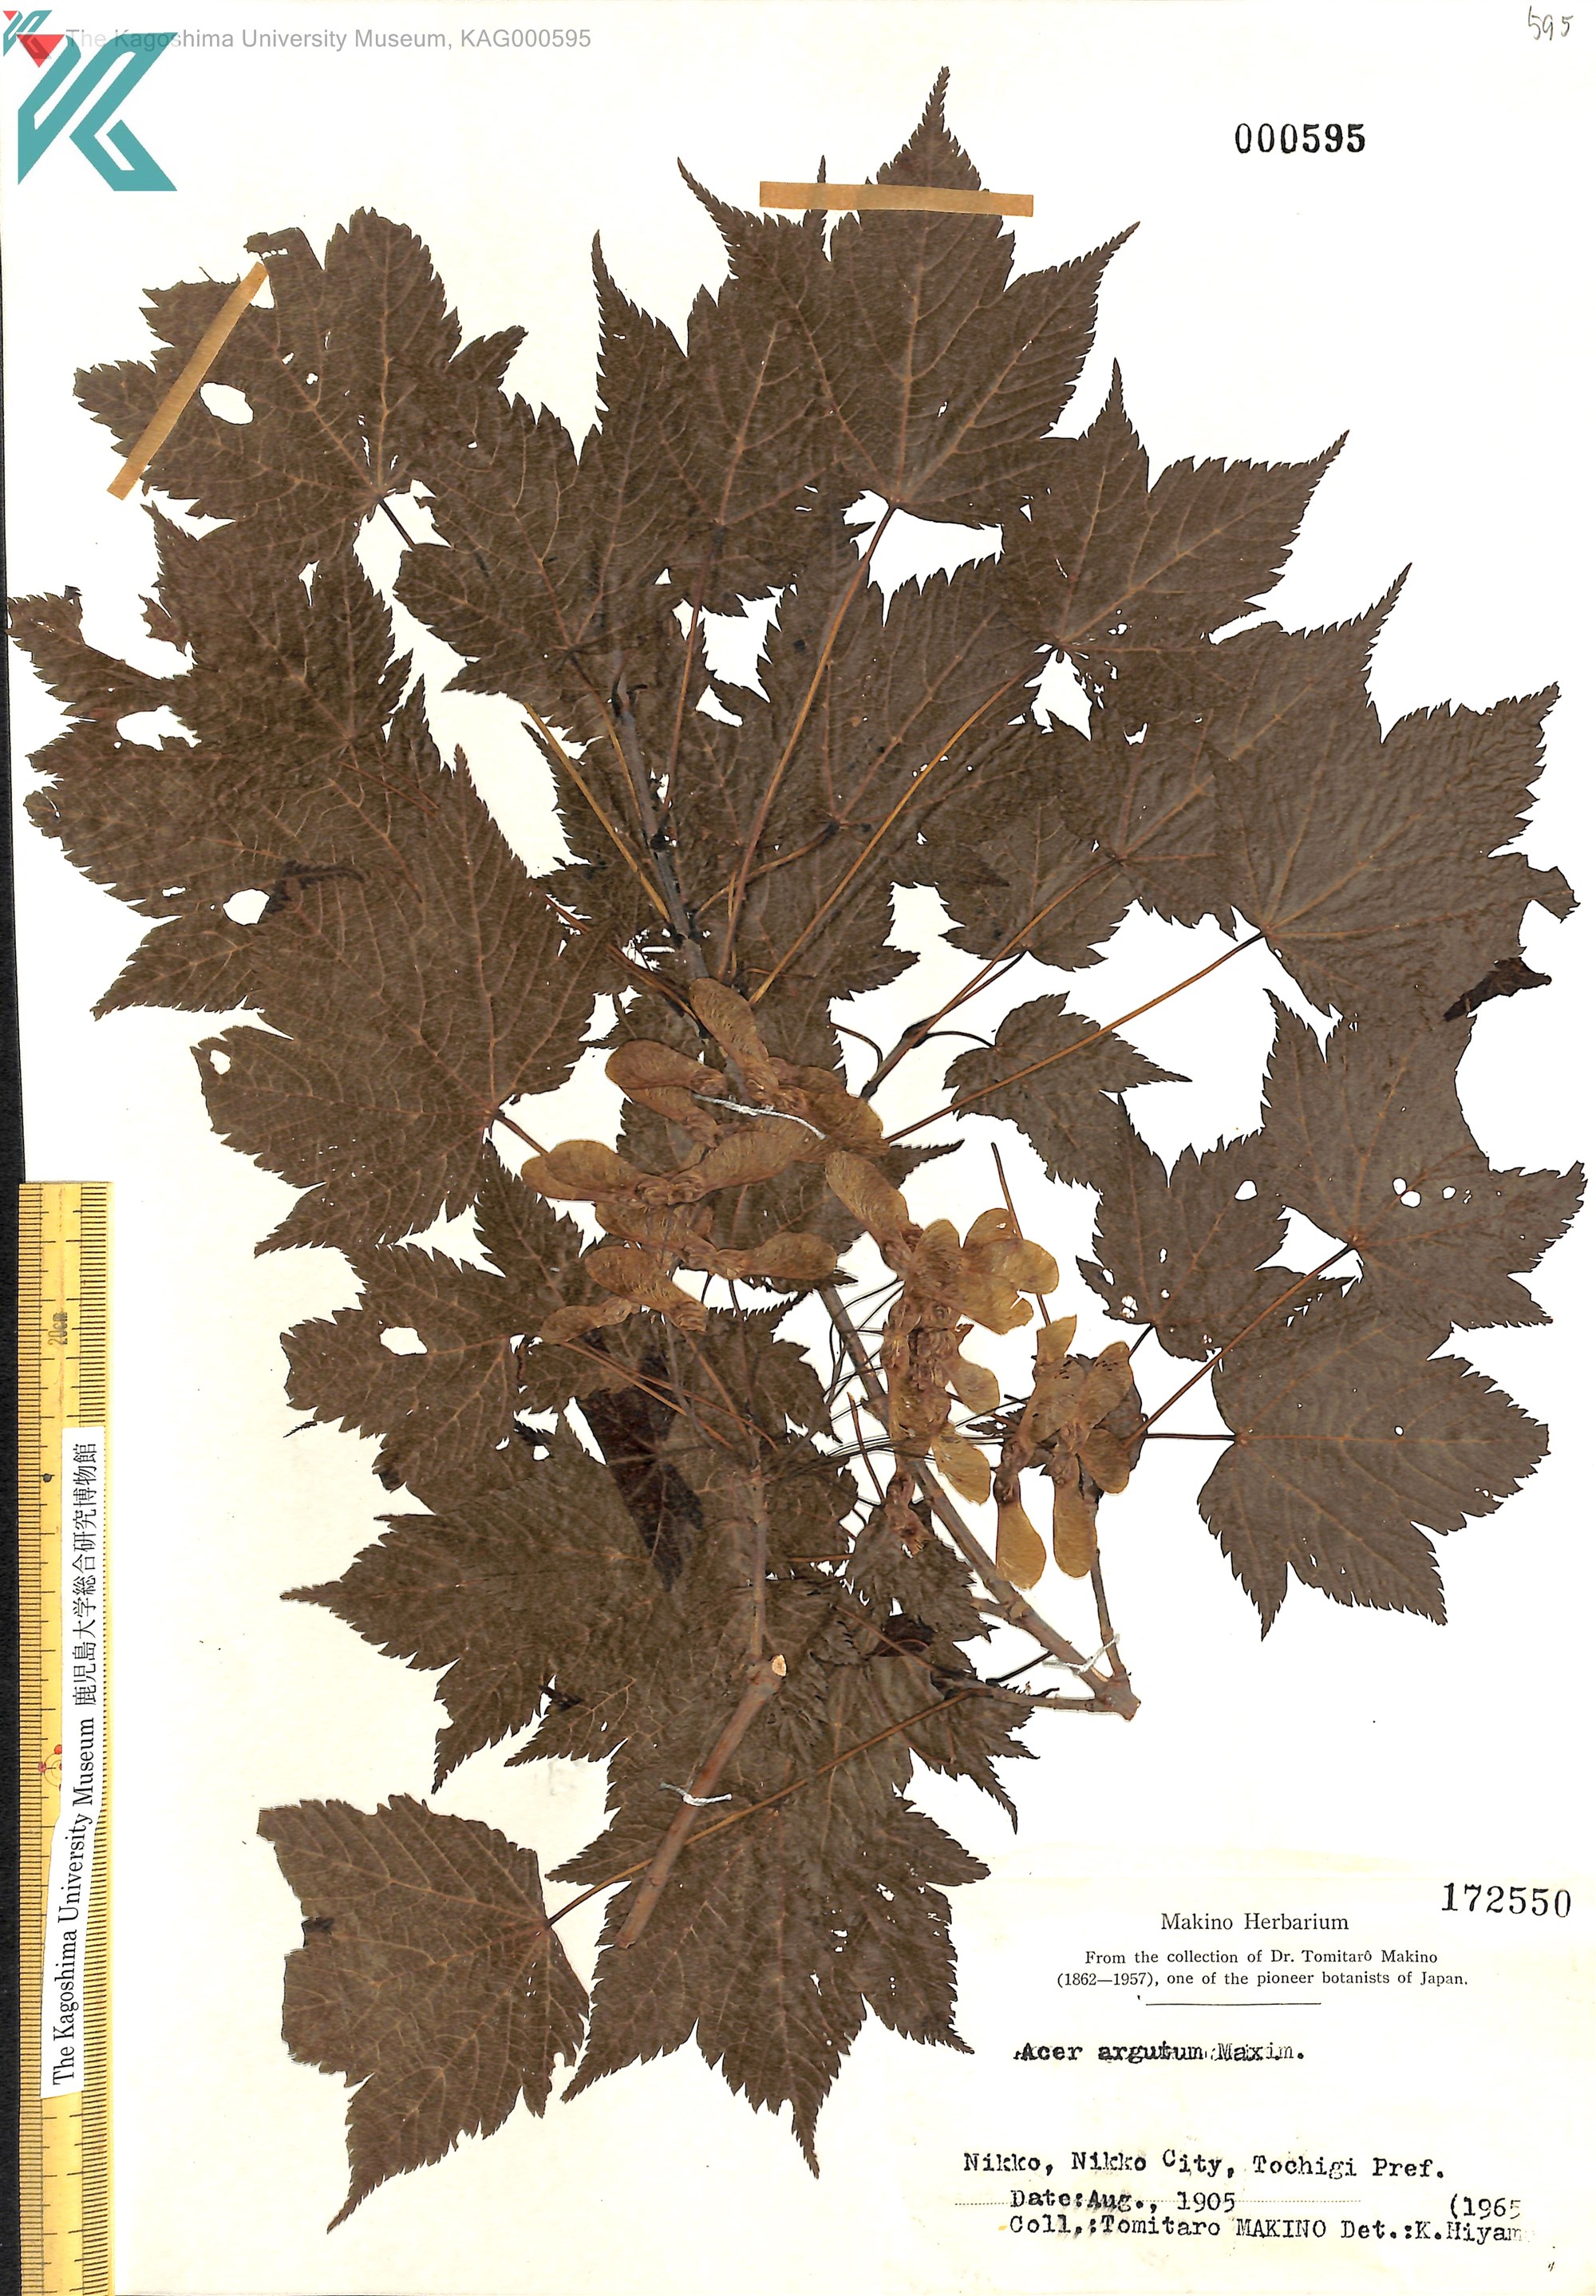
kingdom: Plantae
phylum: Tracheophyta
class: Magnoliopsida
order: Sapindales
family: Sapindaceae
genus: Acer
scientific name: Acer argutum
